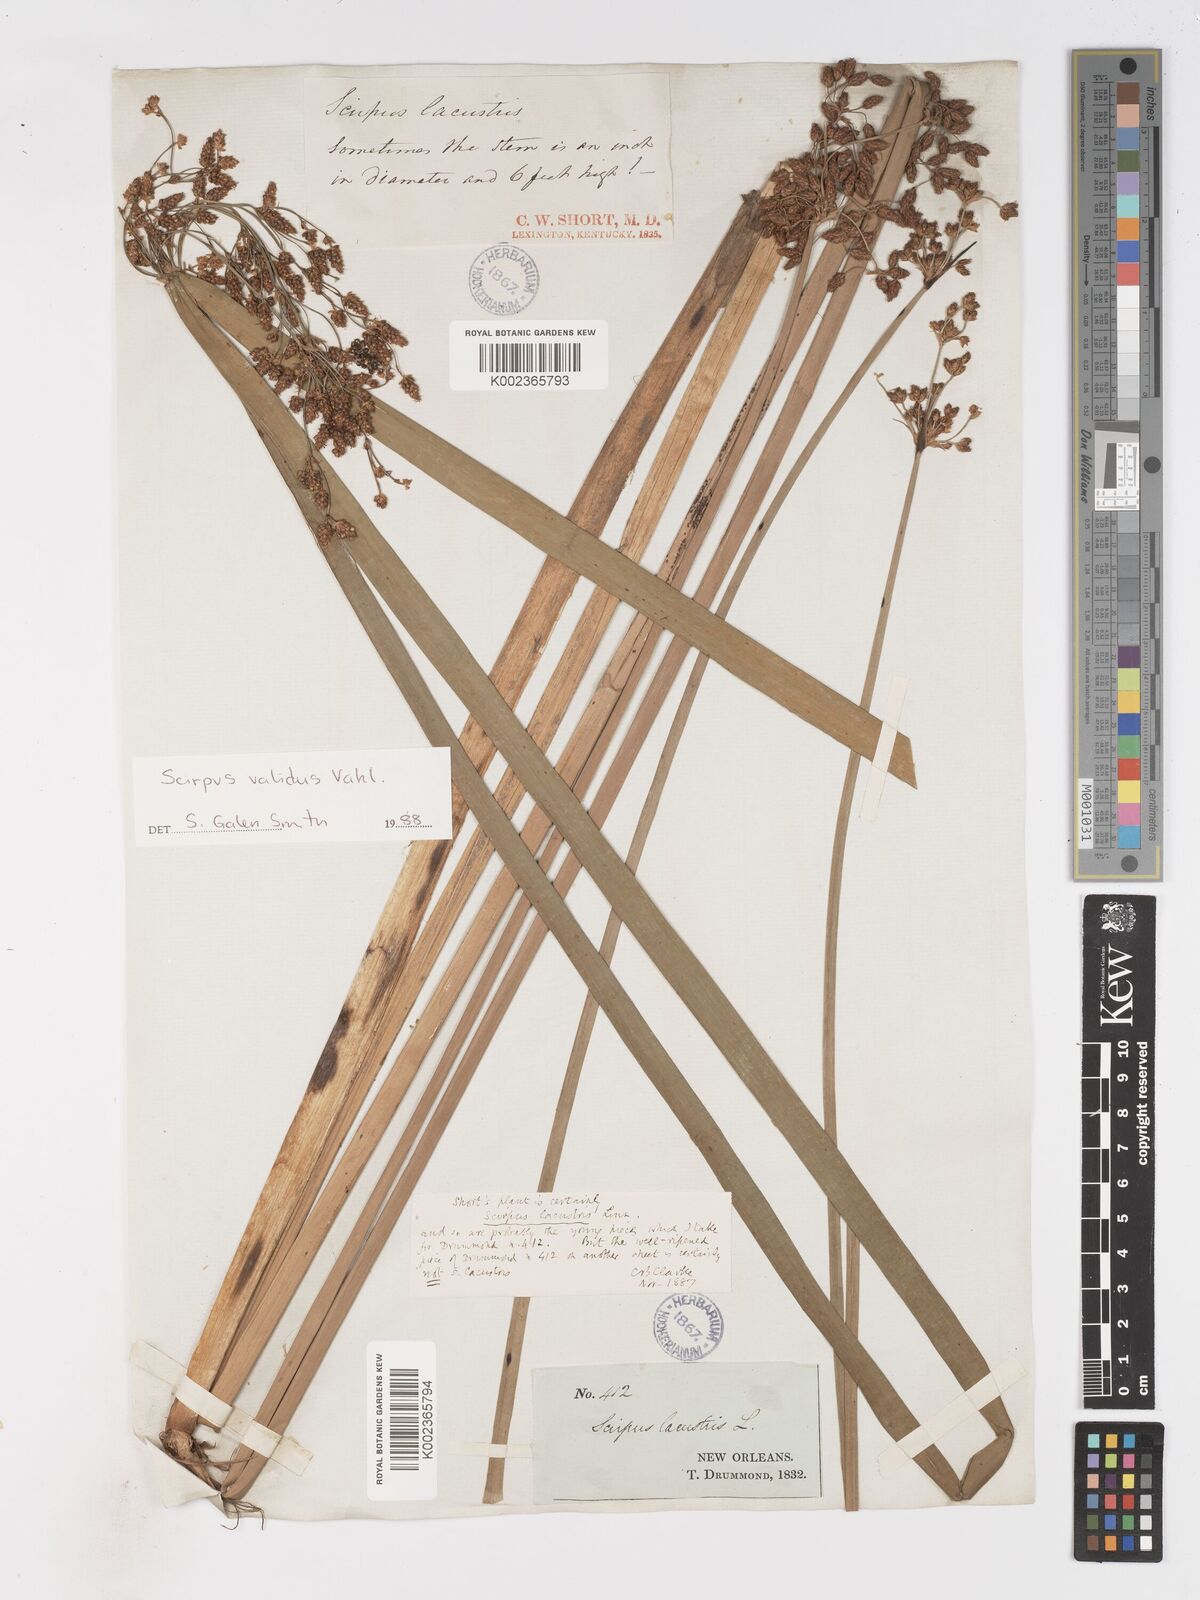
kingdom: Plantae
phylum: Tracheophyta
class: Liliopsida
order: Poales
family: Cyperaceae
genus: Schoenoplectus
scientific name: Schoenoplectus lacustris
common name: Common club-rush
